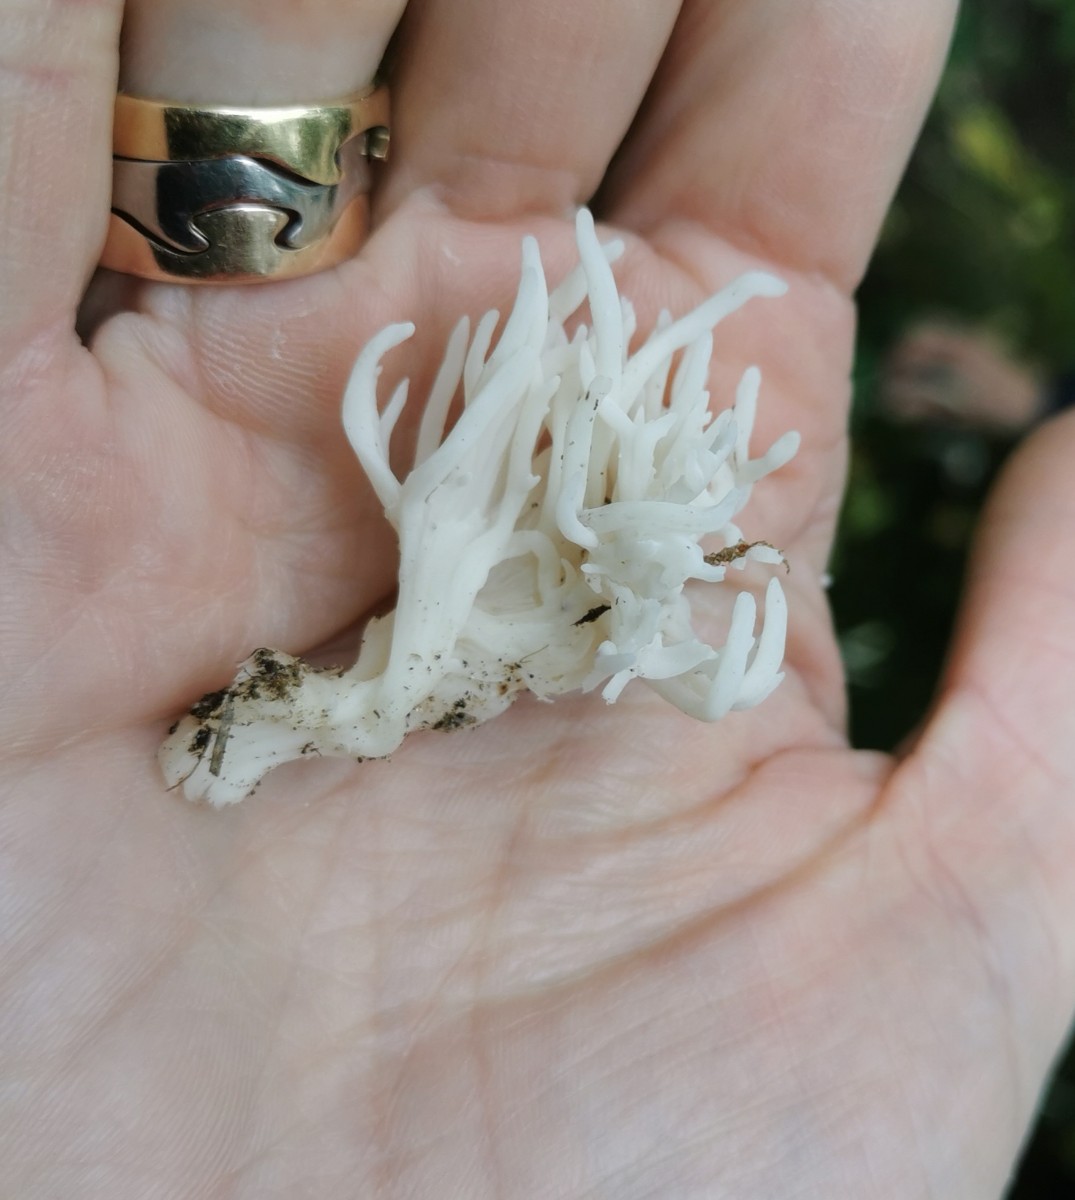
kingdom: Fungi
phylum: Basidiomycota
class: Agaricomycetes
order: Agaricales
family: Clavariaceae
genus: Ramariopsis
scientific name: Ramariopsis
